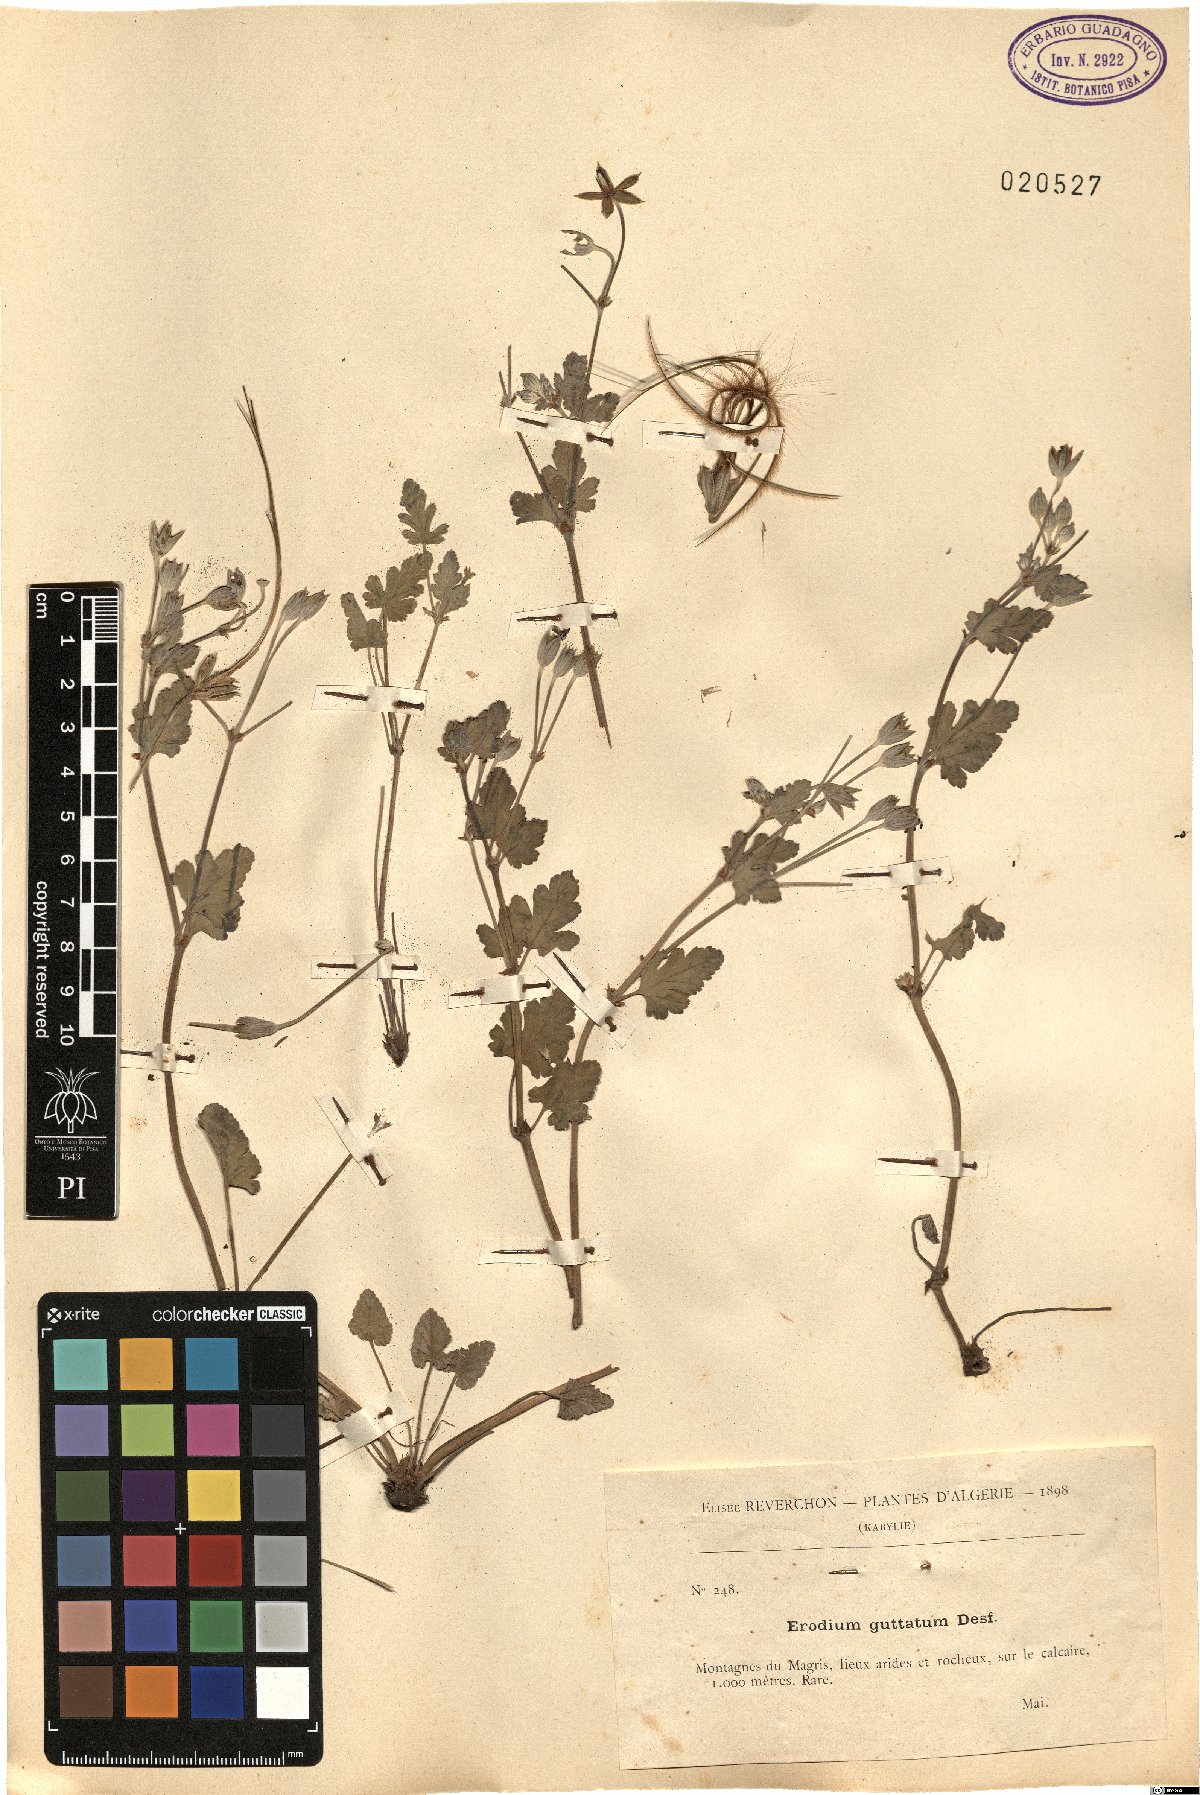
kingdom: Plantae
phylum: Tracheophyta
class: Magnoliopsida
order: Geraniales
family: Geraniaceae
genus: Erodium
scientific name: Erodium guttatum
